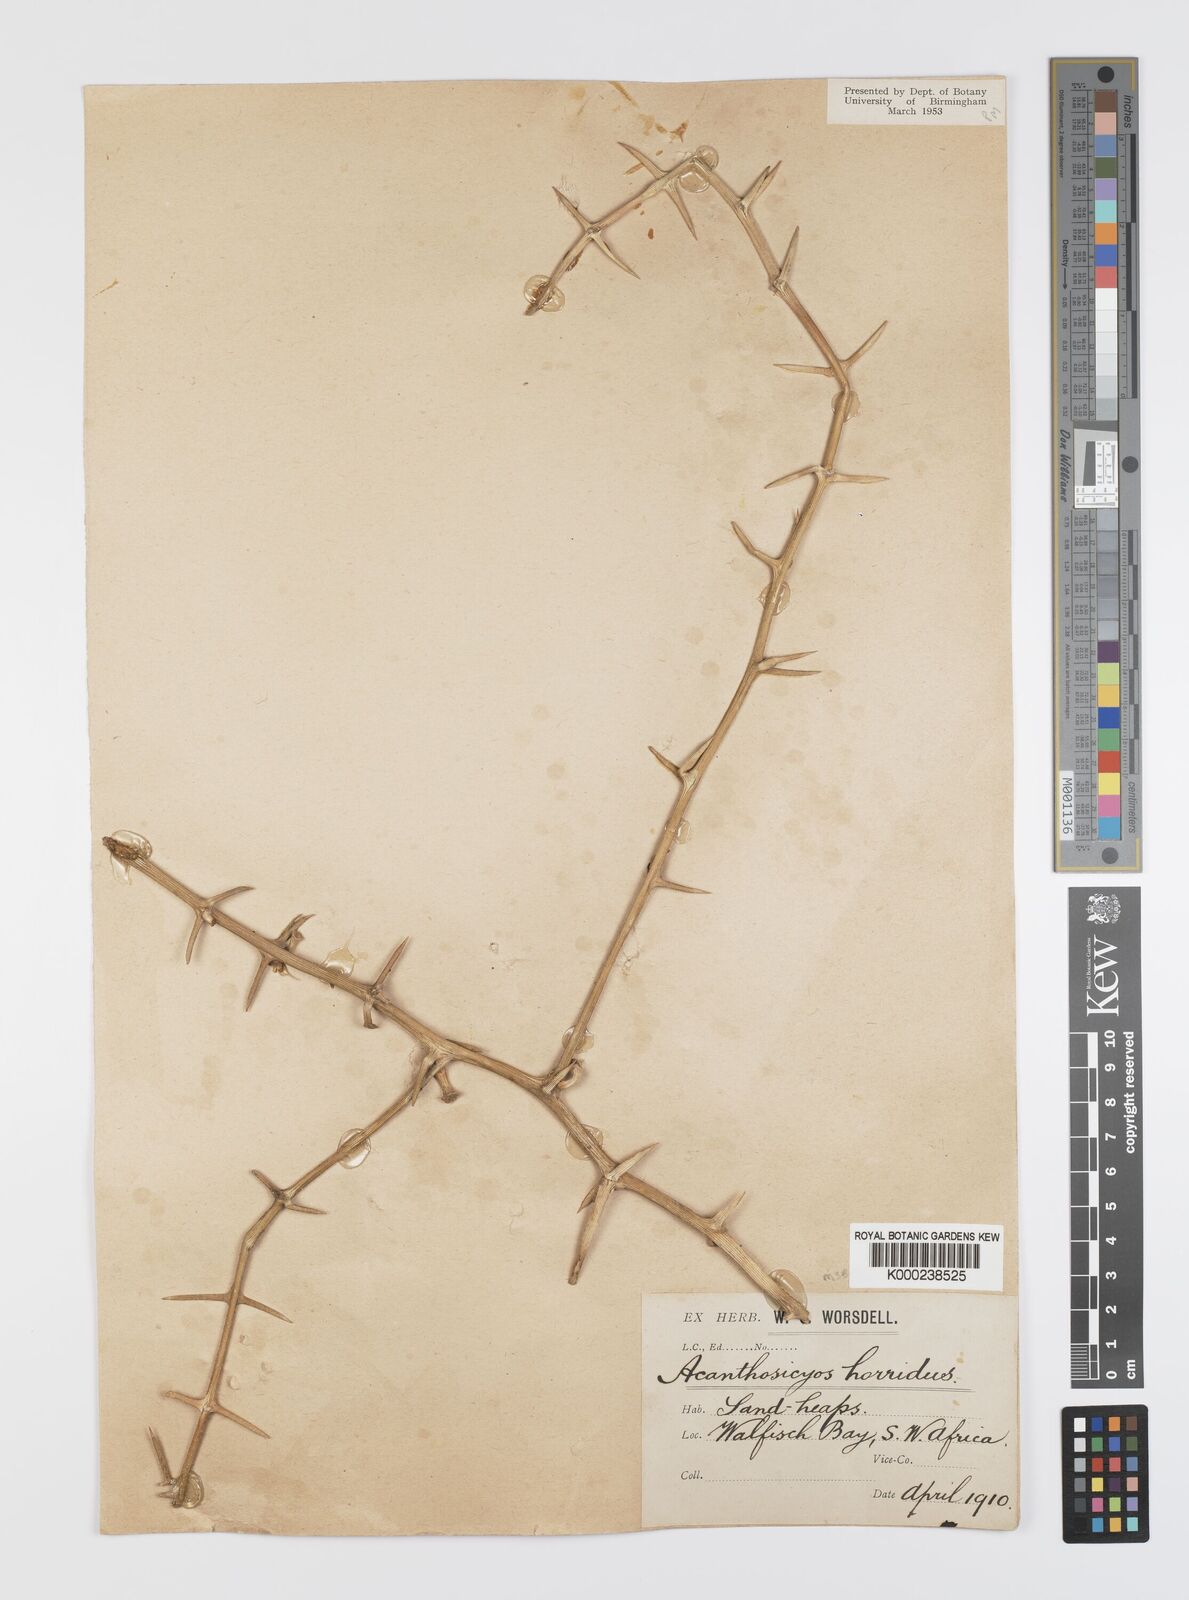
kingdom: Plantae
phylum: Tracheophyta
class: Magnoliopsida
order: Cucurbitales
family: Cucurbitaceae
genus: Acanthosicyos
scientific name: Acanthosicyos horridus
